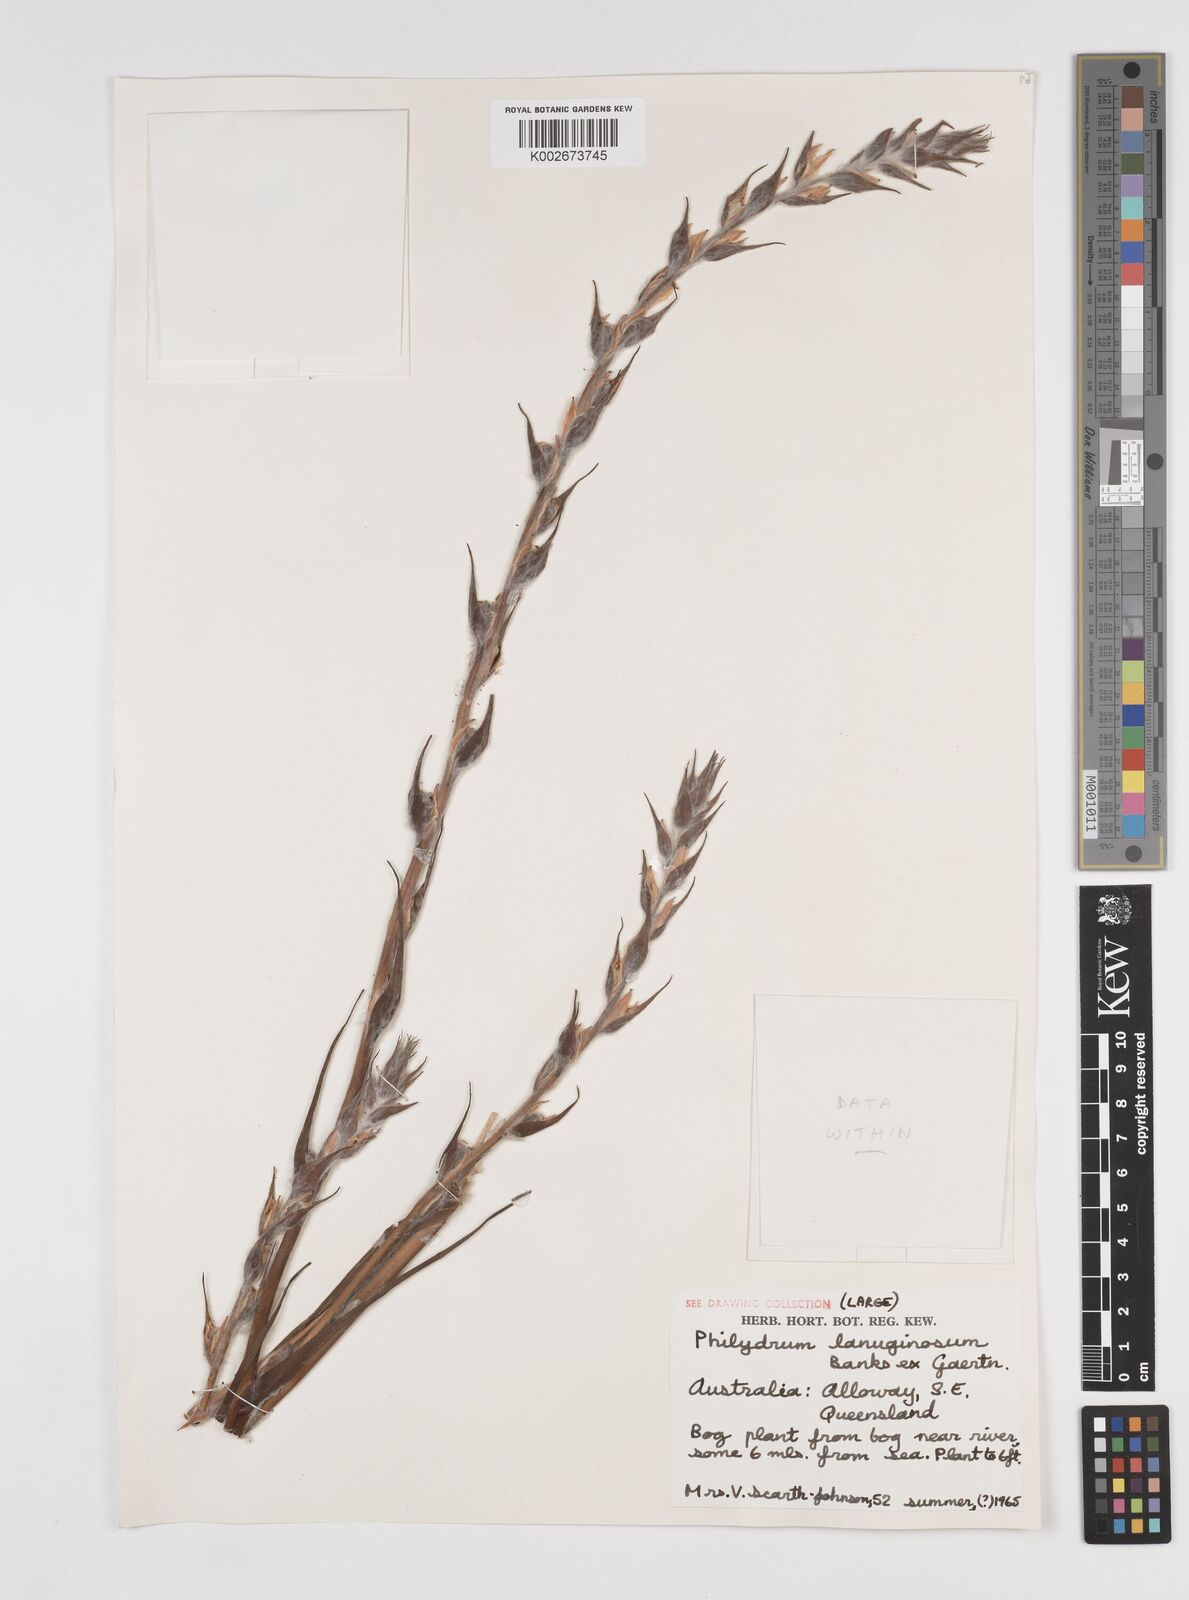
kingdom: Plantae
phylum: Tracheophyta
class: Liliopsida
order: Commelinales
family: Philydraceae
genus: Philydrum
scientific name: Philydrum lanuginosum
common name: Woolly frog's mouth
